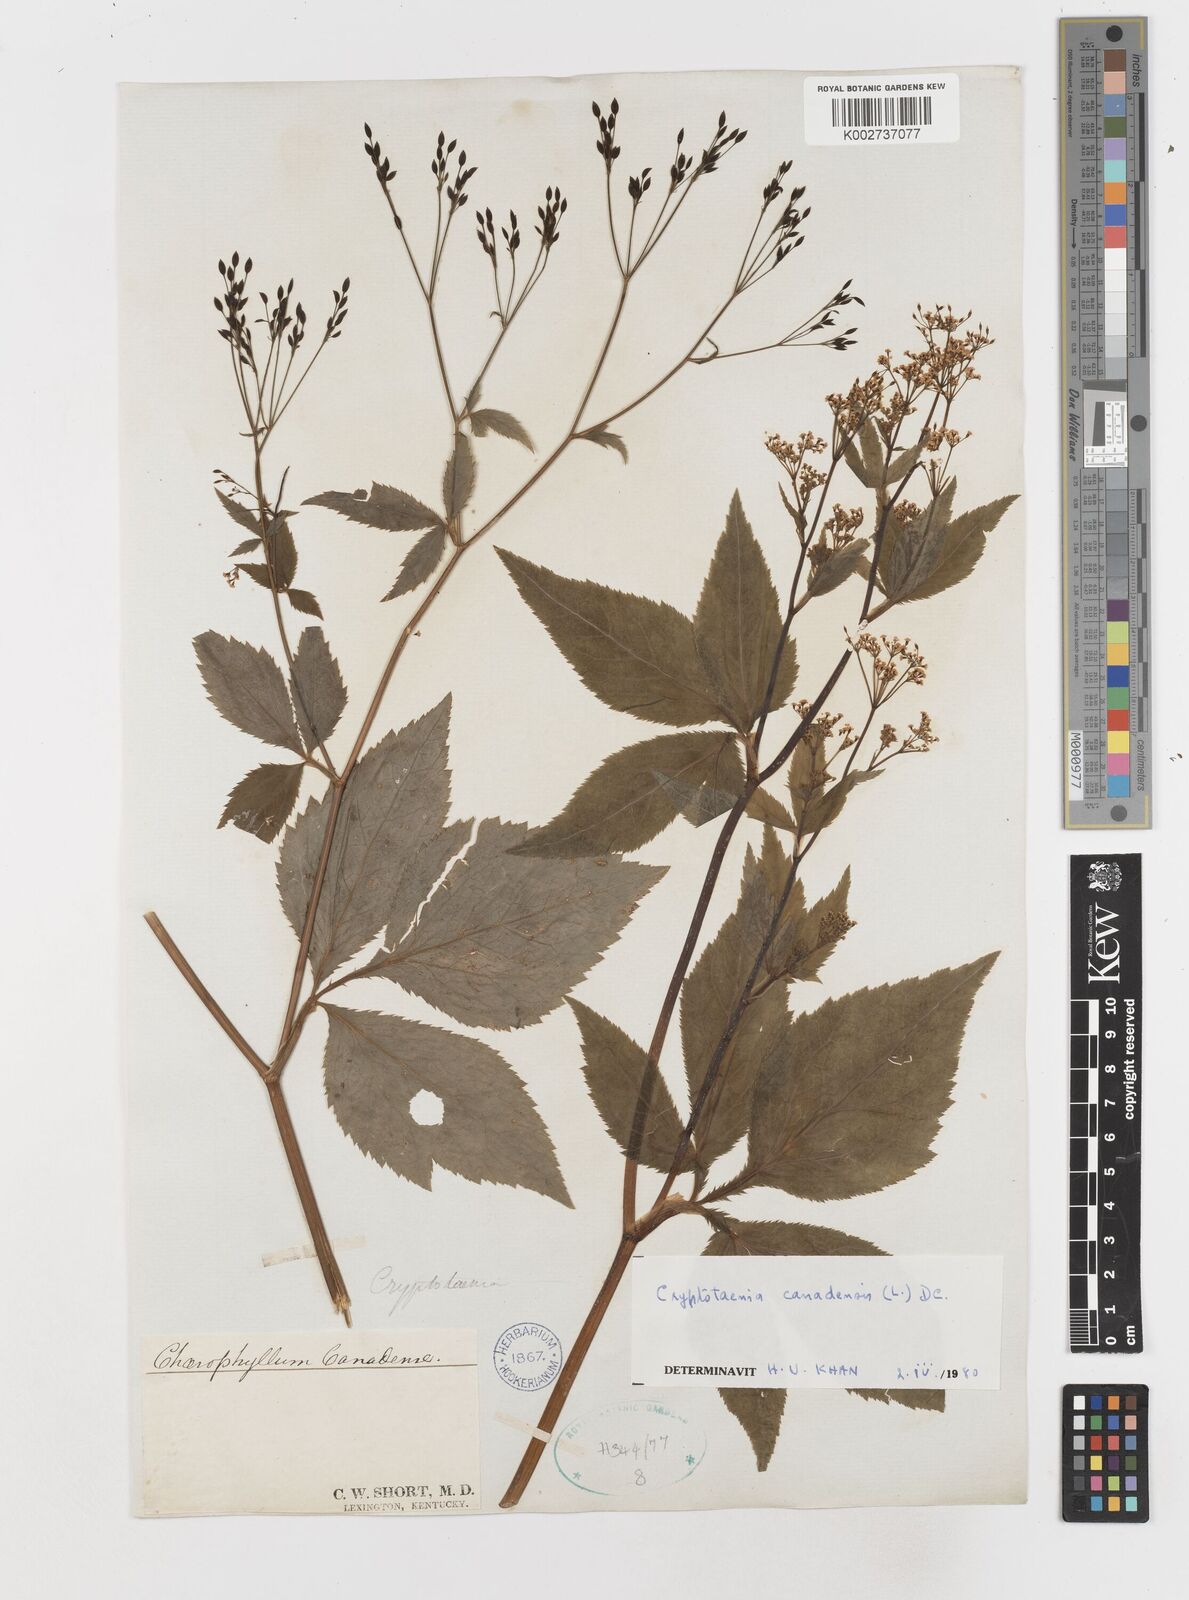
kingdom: Plantae
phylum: Tracheophyta
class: Magnoliopsida
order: Apiales
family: Apiaceae
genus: Cryptotaenia
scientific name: Cryptotaenia canadensis
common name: Honewort
